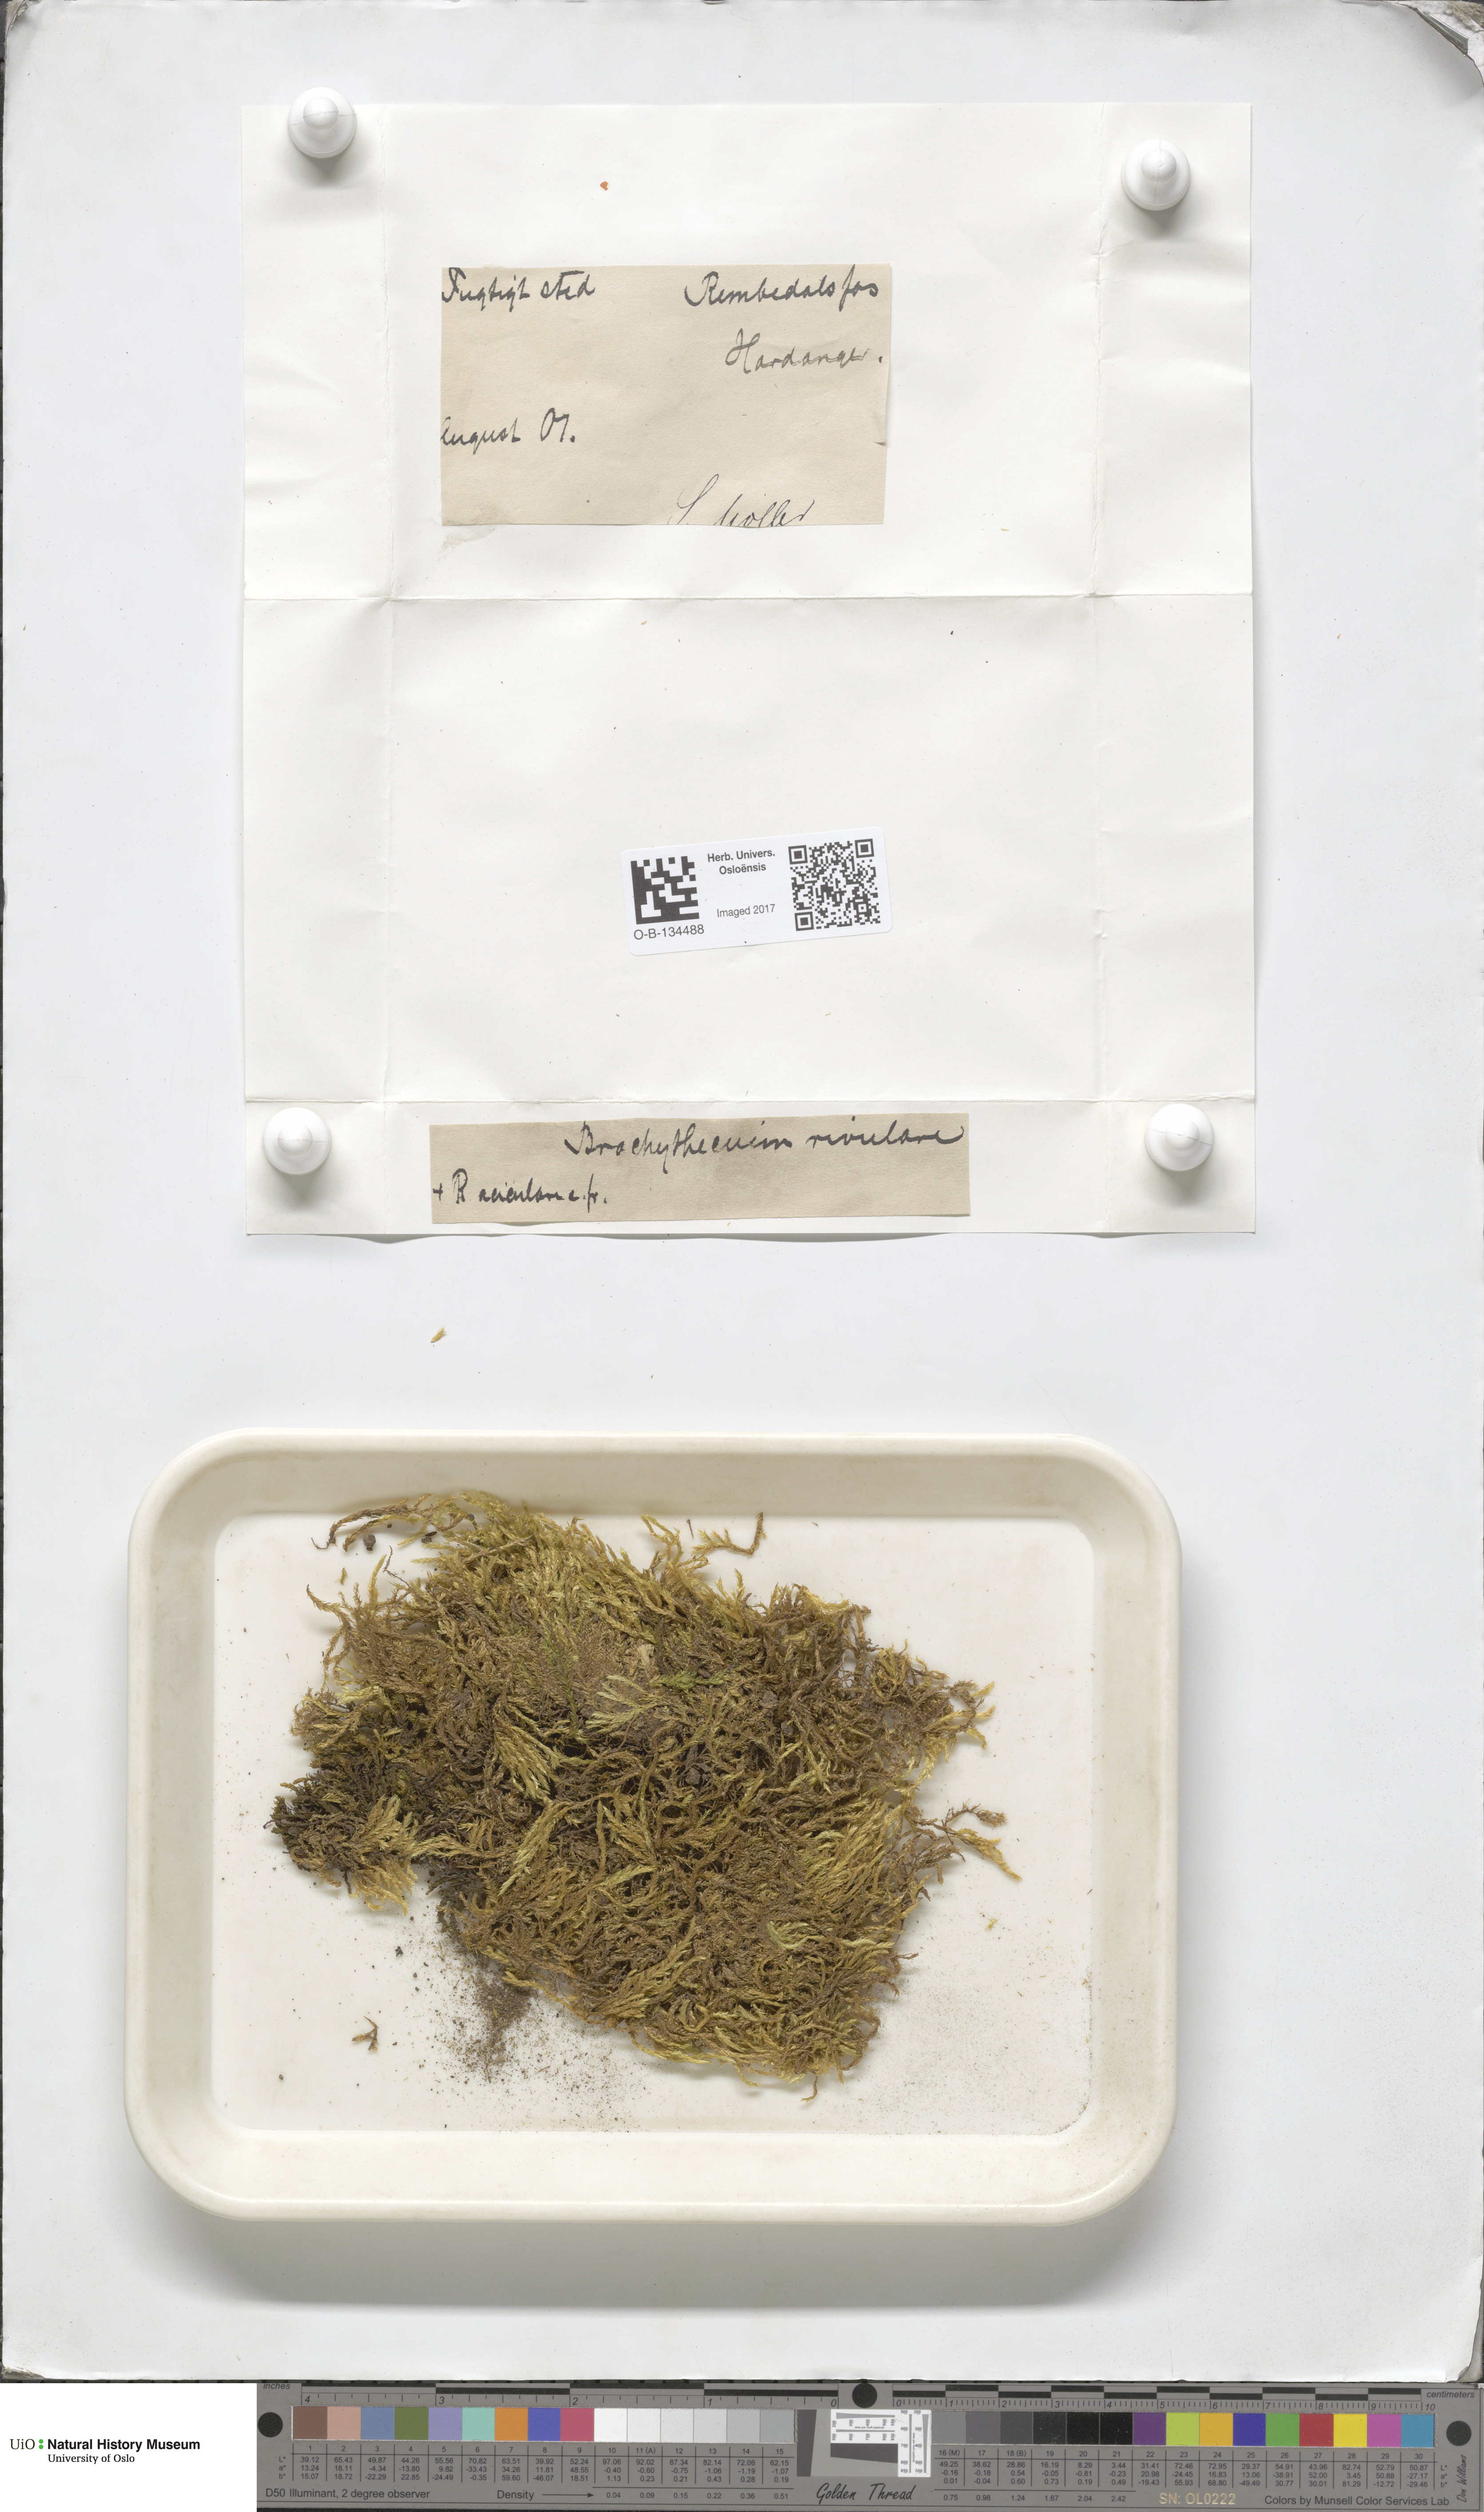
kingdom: Plantae
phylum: Bryophyta
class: Bryopsida
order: Hypnales
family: Brachytheciaceae
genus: Brachythecium
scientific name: Brachythecium rivulare
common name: River ragged moss
